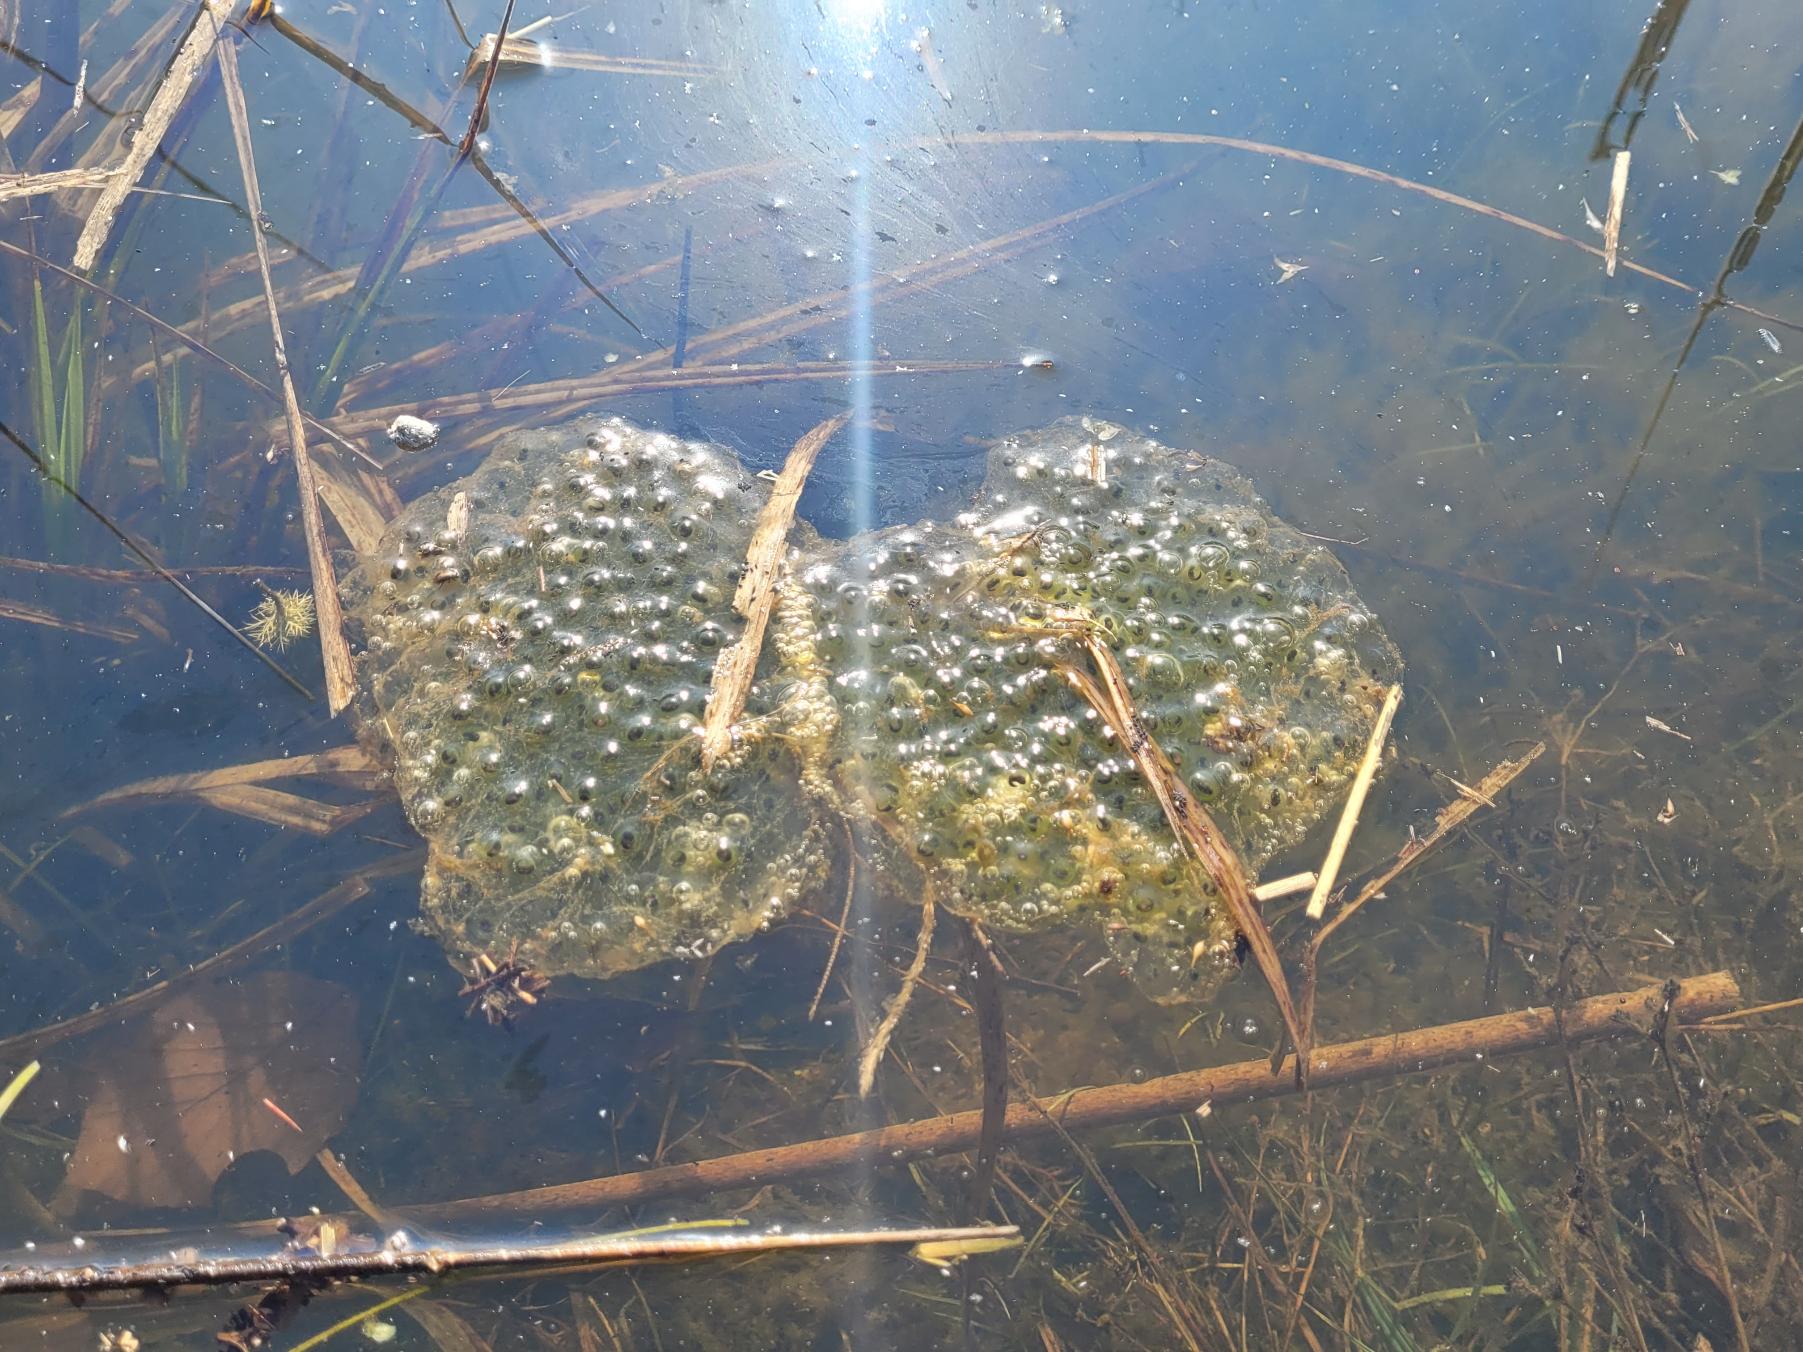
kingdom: Animalia
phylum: Chordata
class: Amphibia
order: Anura
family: Ranidae
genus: Rana
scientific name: Rana dalmatina
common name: Springfrø
